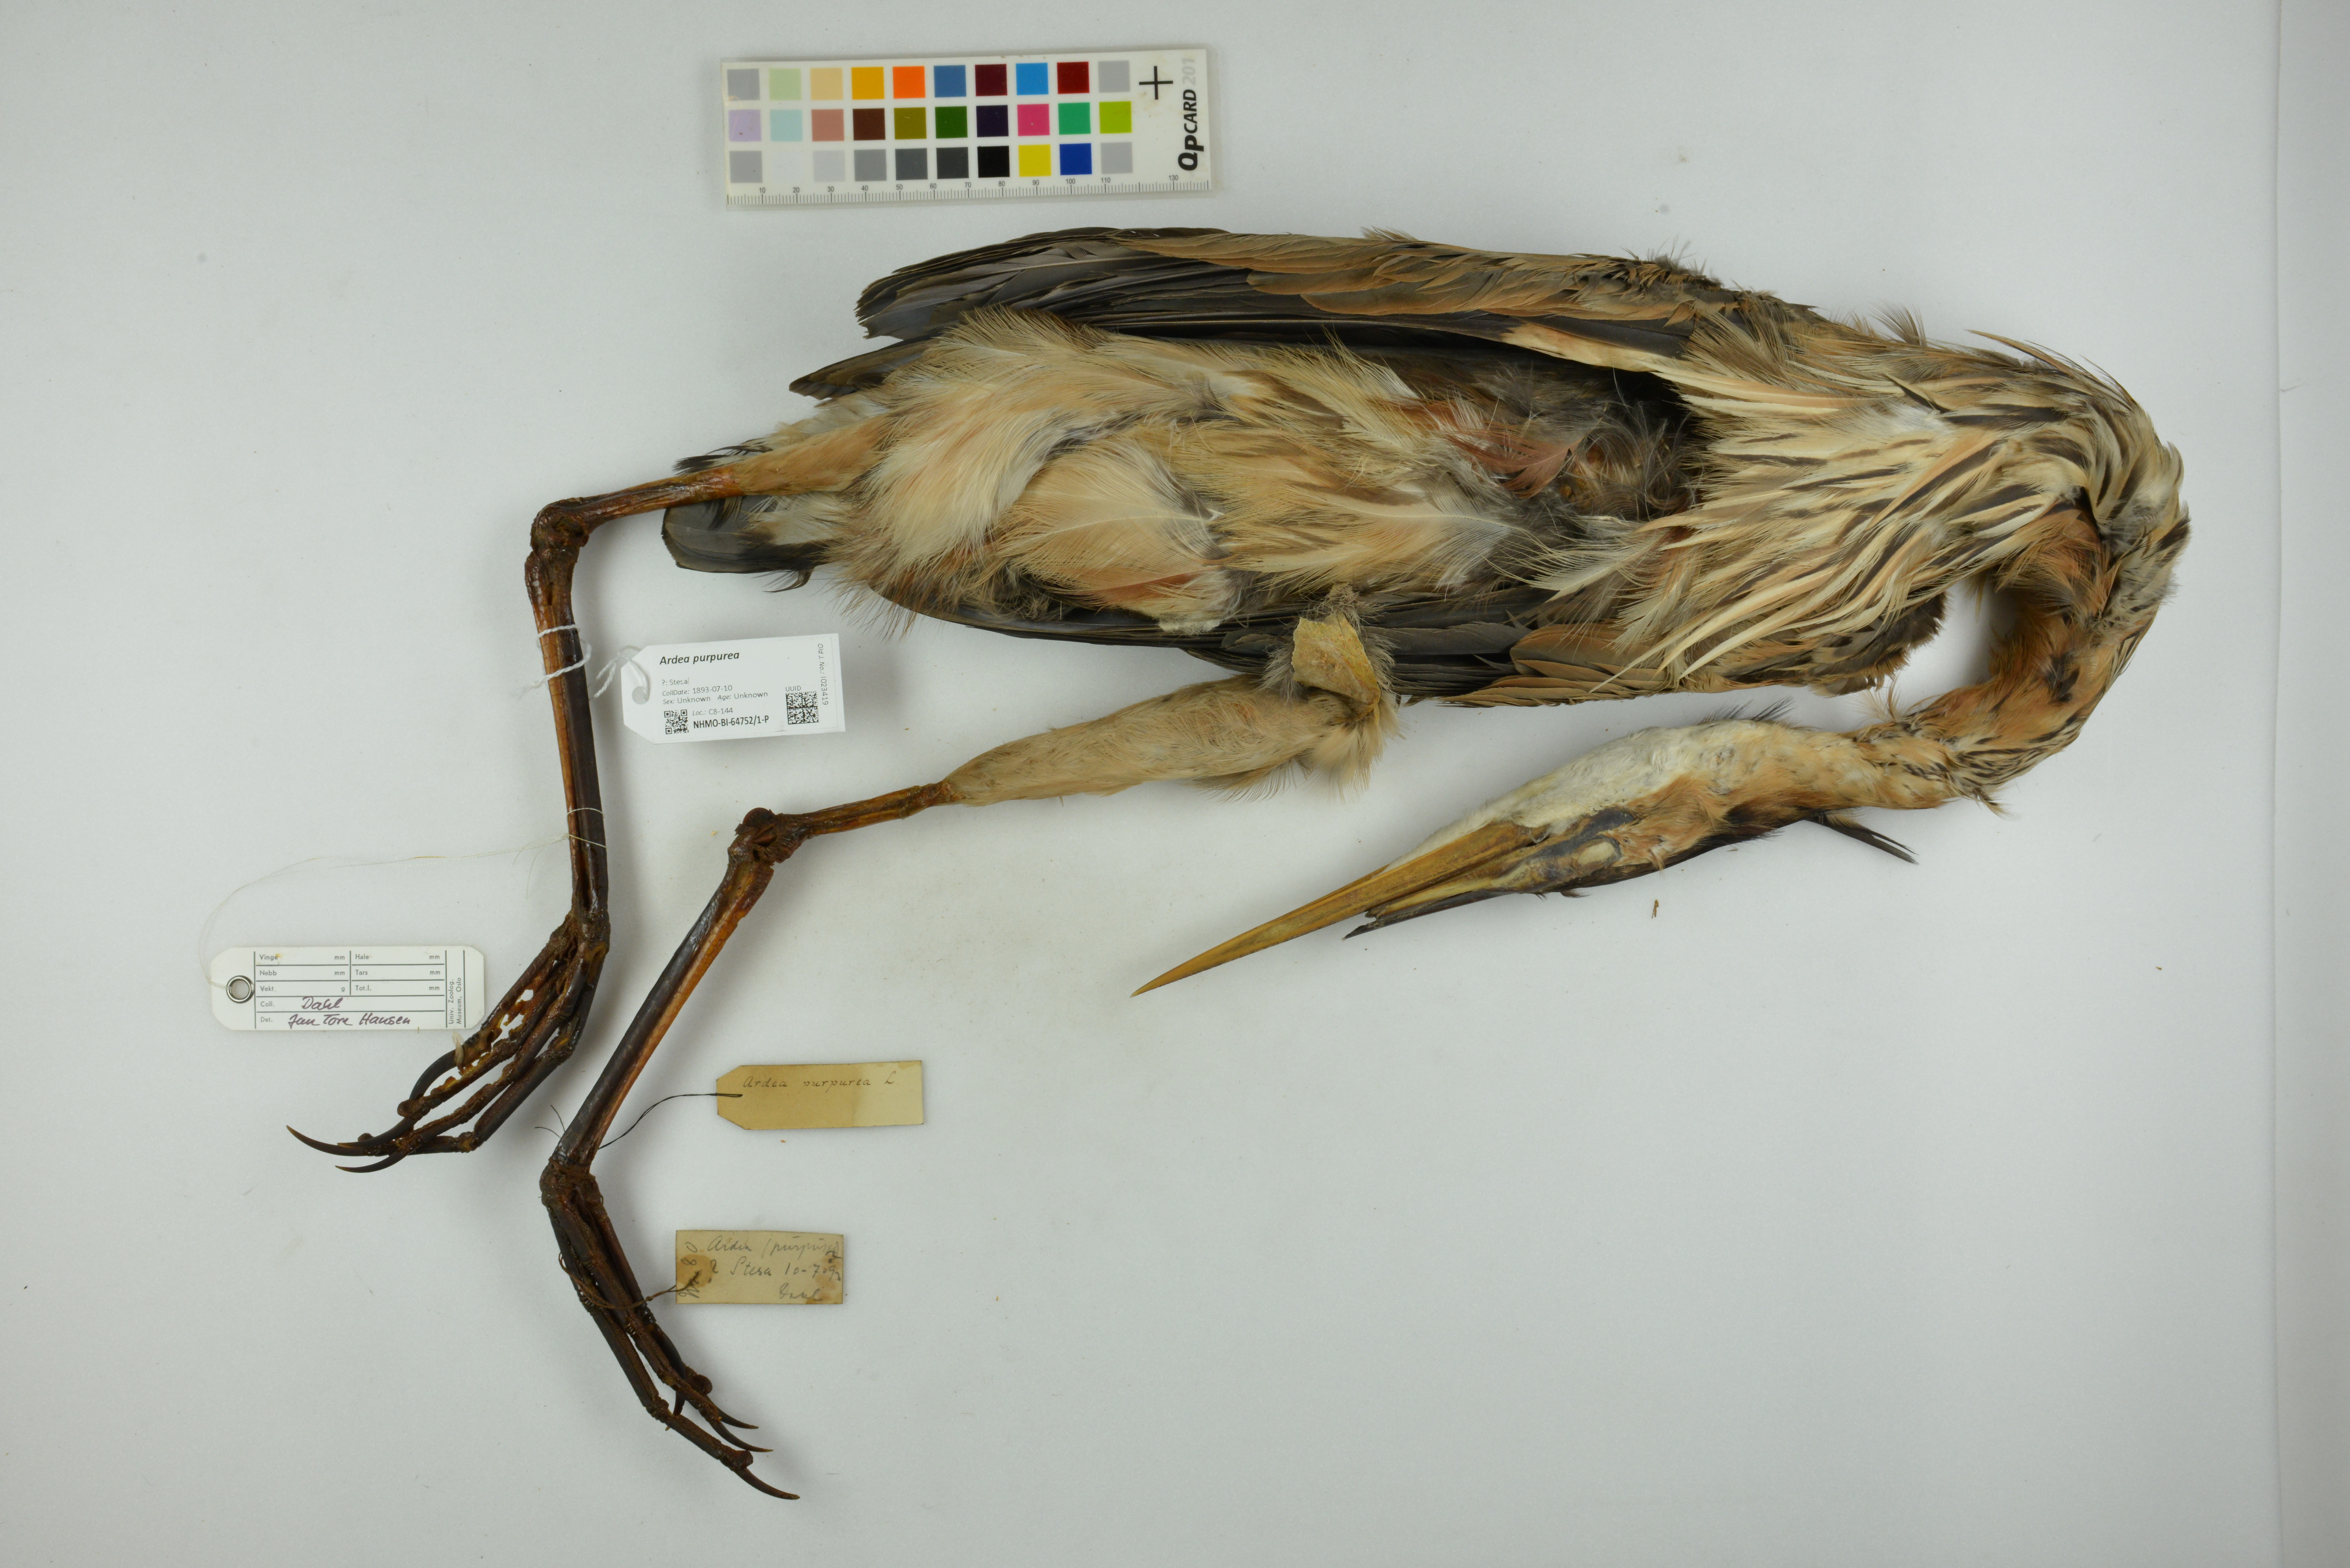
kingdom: Animalia
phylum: Chordata
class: Aves
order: Pelecaniformes
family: Ardeidae
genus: Ardea
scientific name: Ardea purpurea
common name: Purple heron
